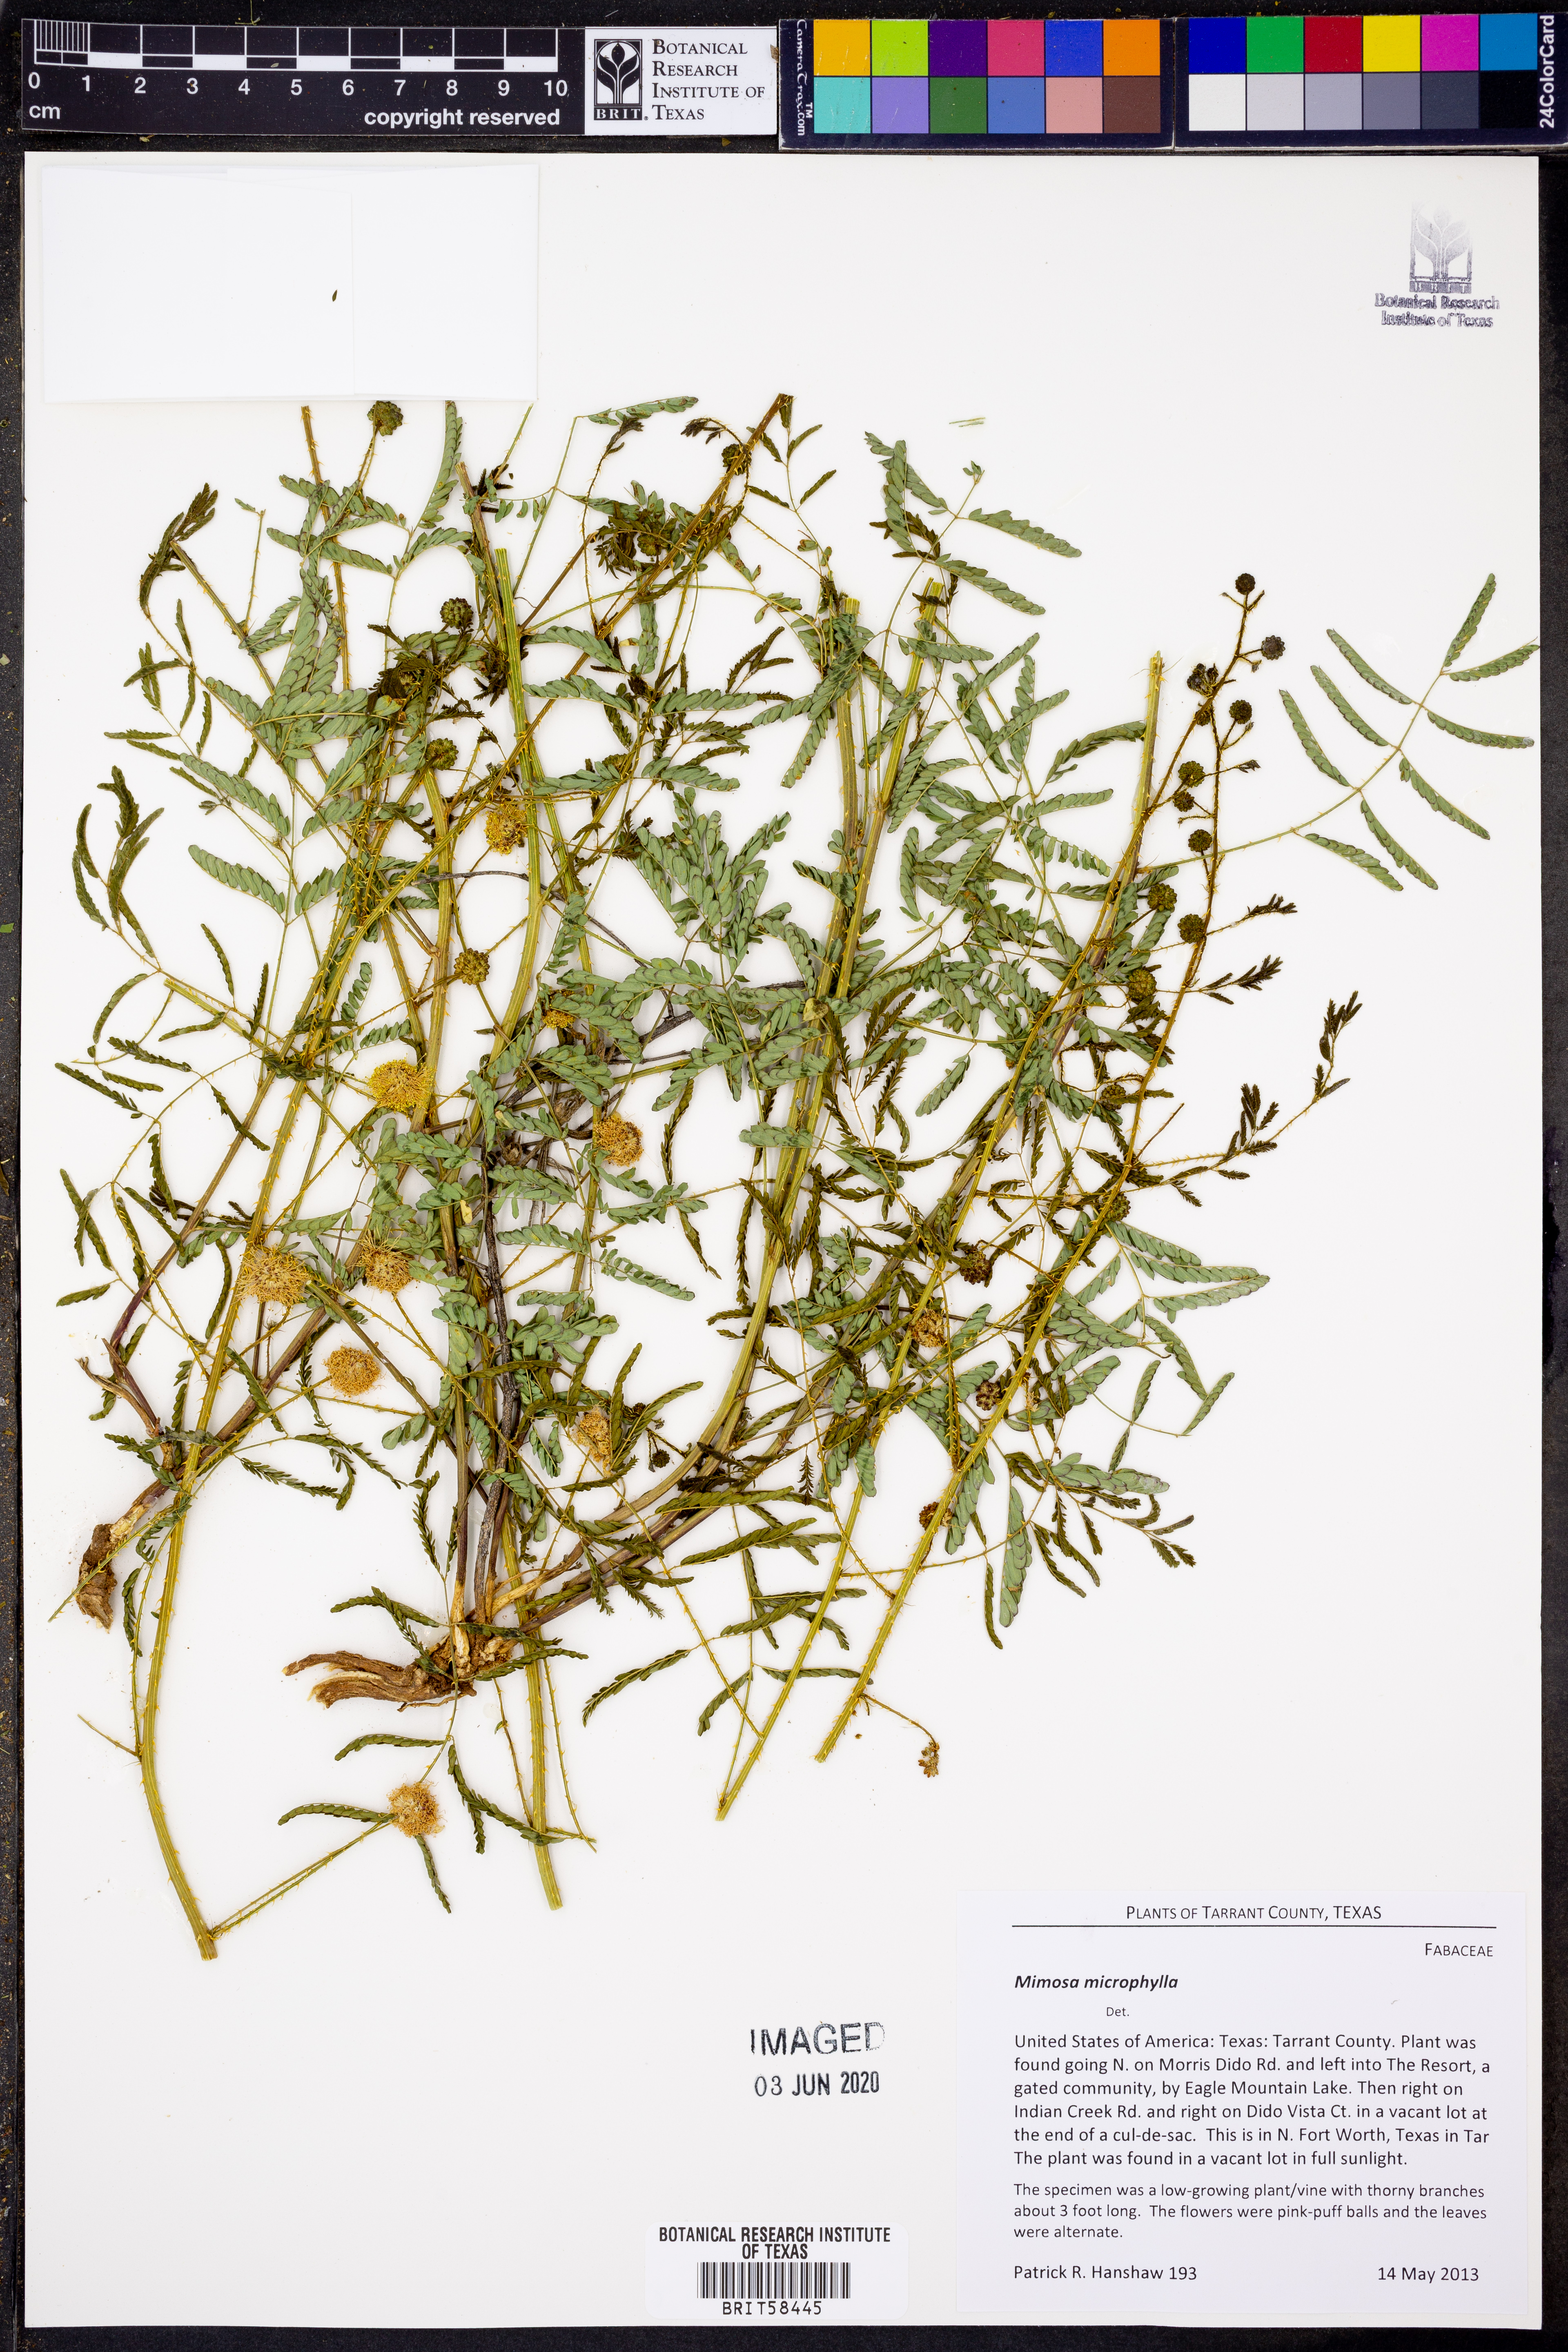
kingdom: Plantae
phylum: Tracheophyta
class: Magnoliopsida
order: Fabales
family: Fabaceae
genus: Mimosa
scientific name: Mimosa quadrivalvis
